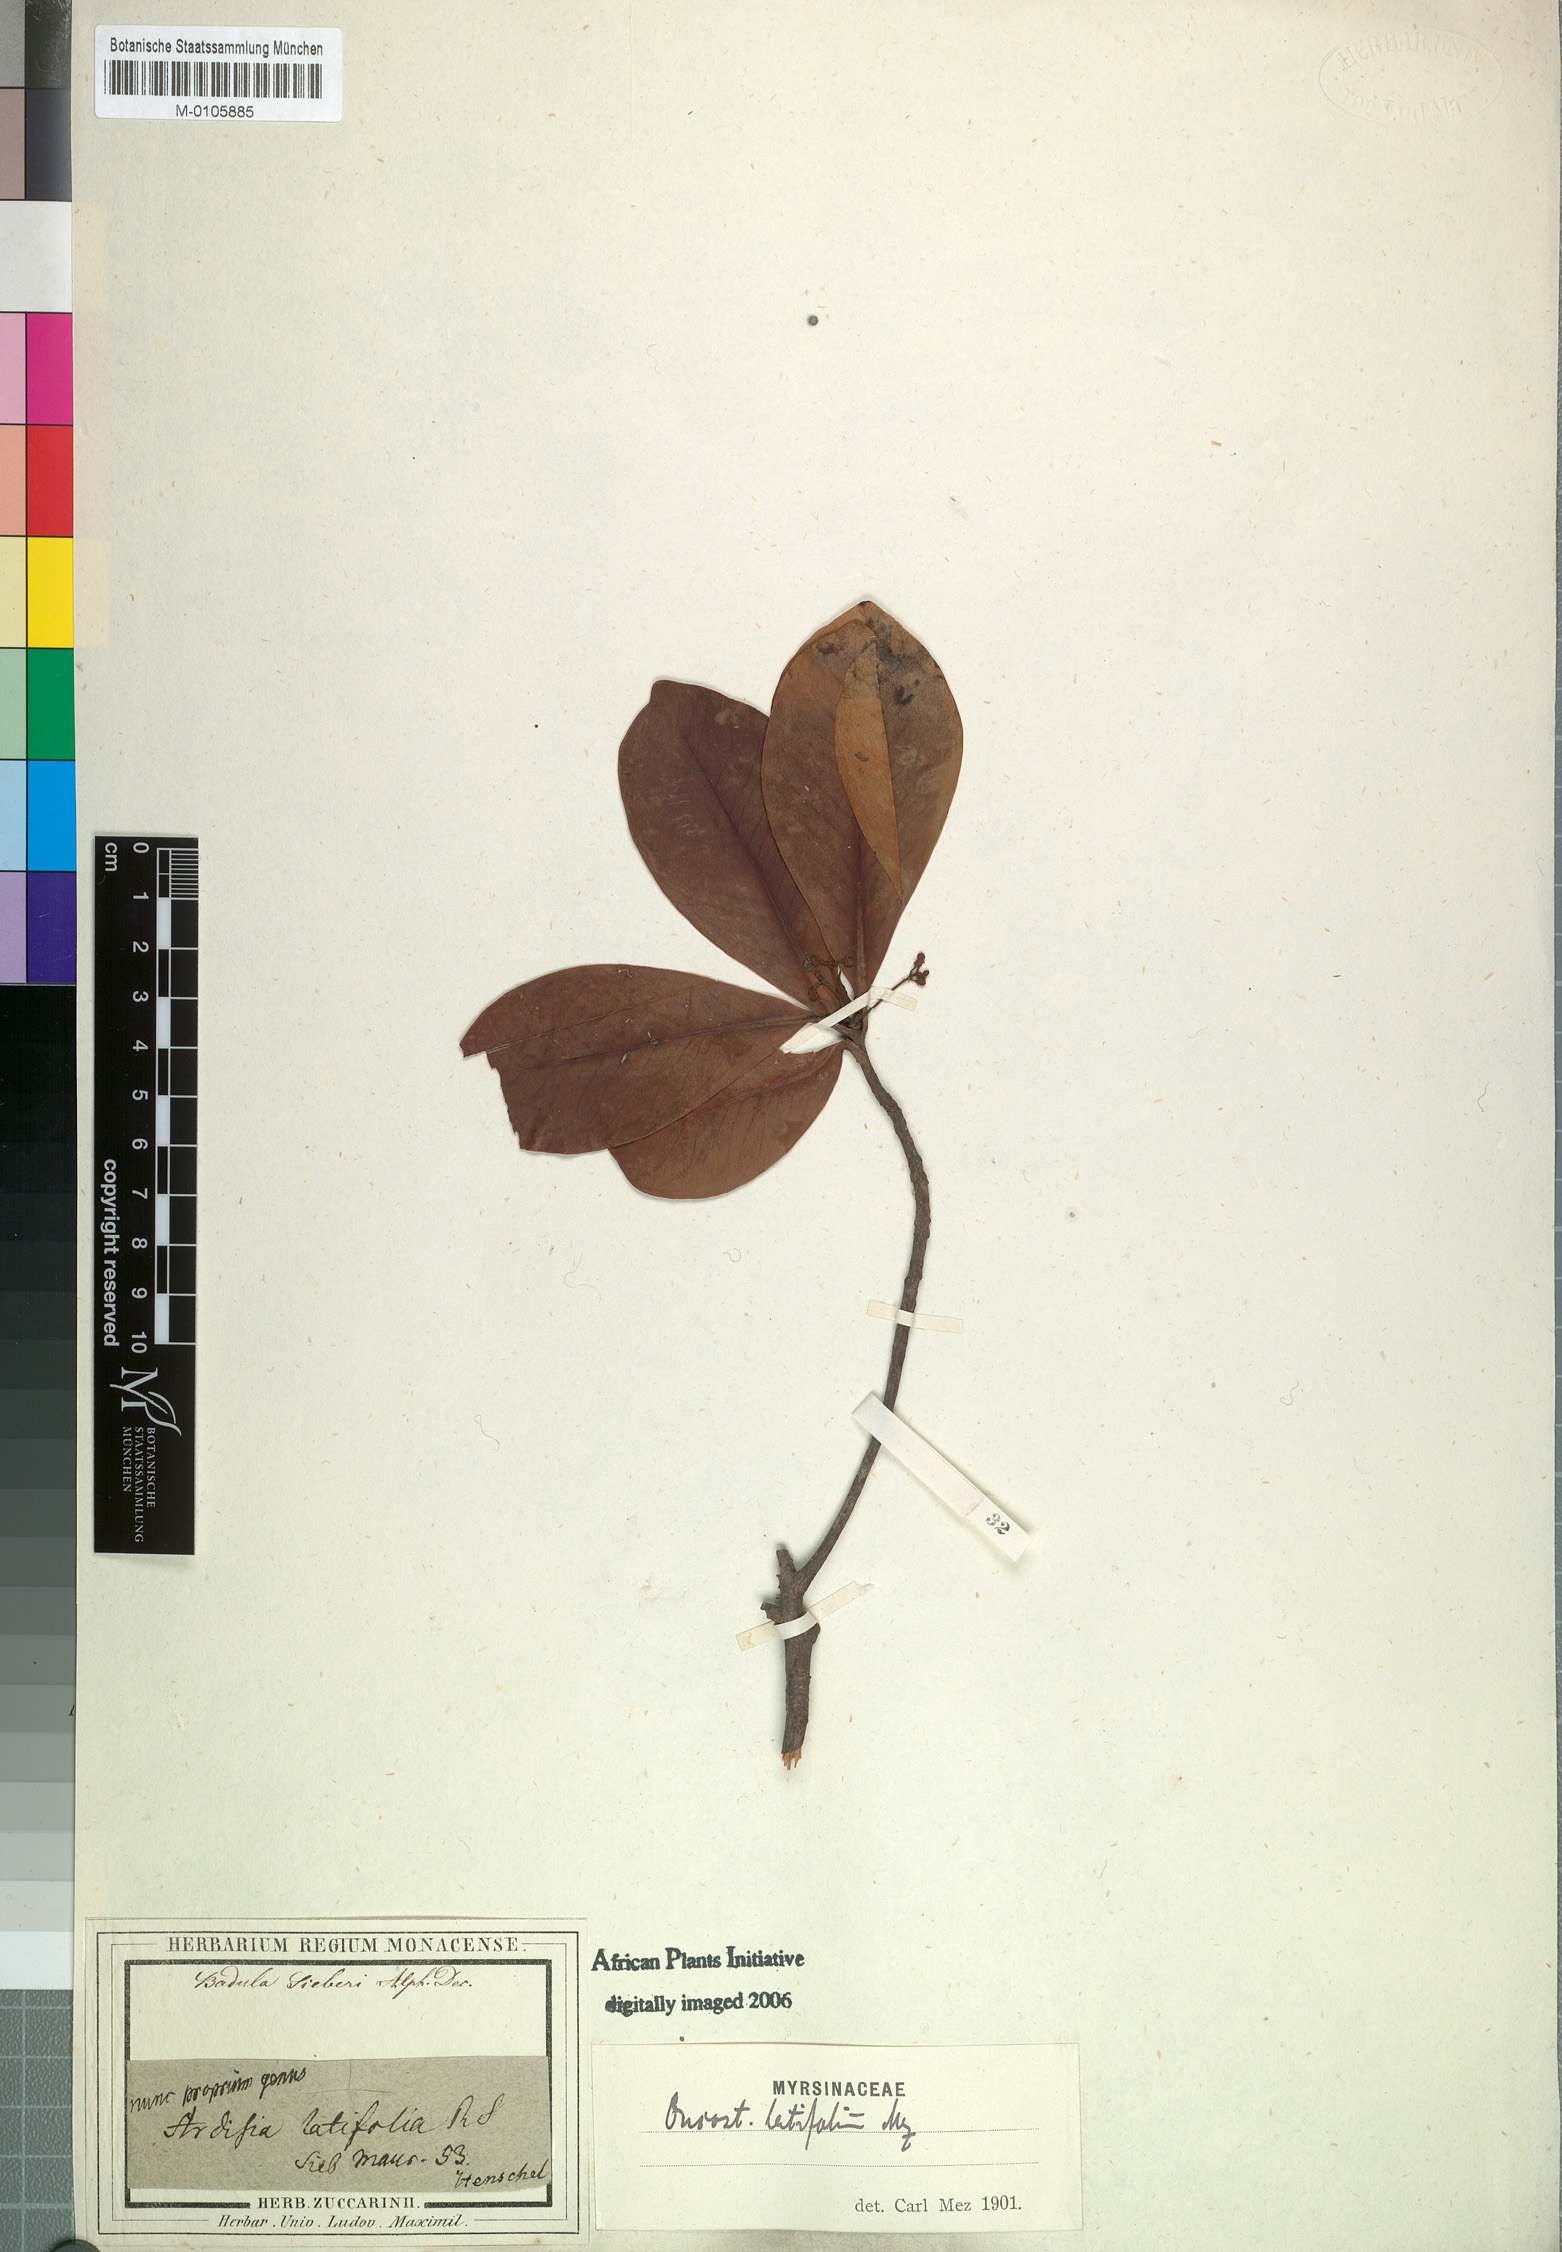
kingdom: Plantae
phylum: Tracheophyta
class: Magnoliopsida
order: Ericales
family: Primulaceae
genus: Badula
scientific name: Badula sieberi
